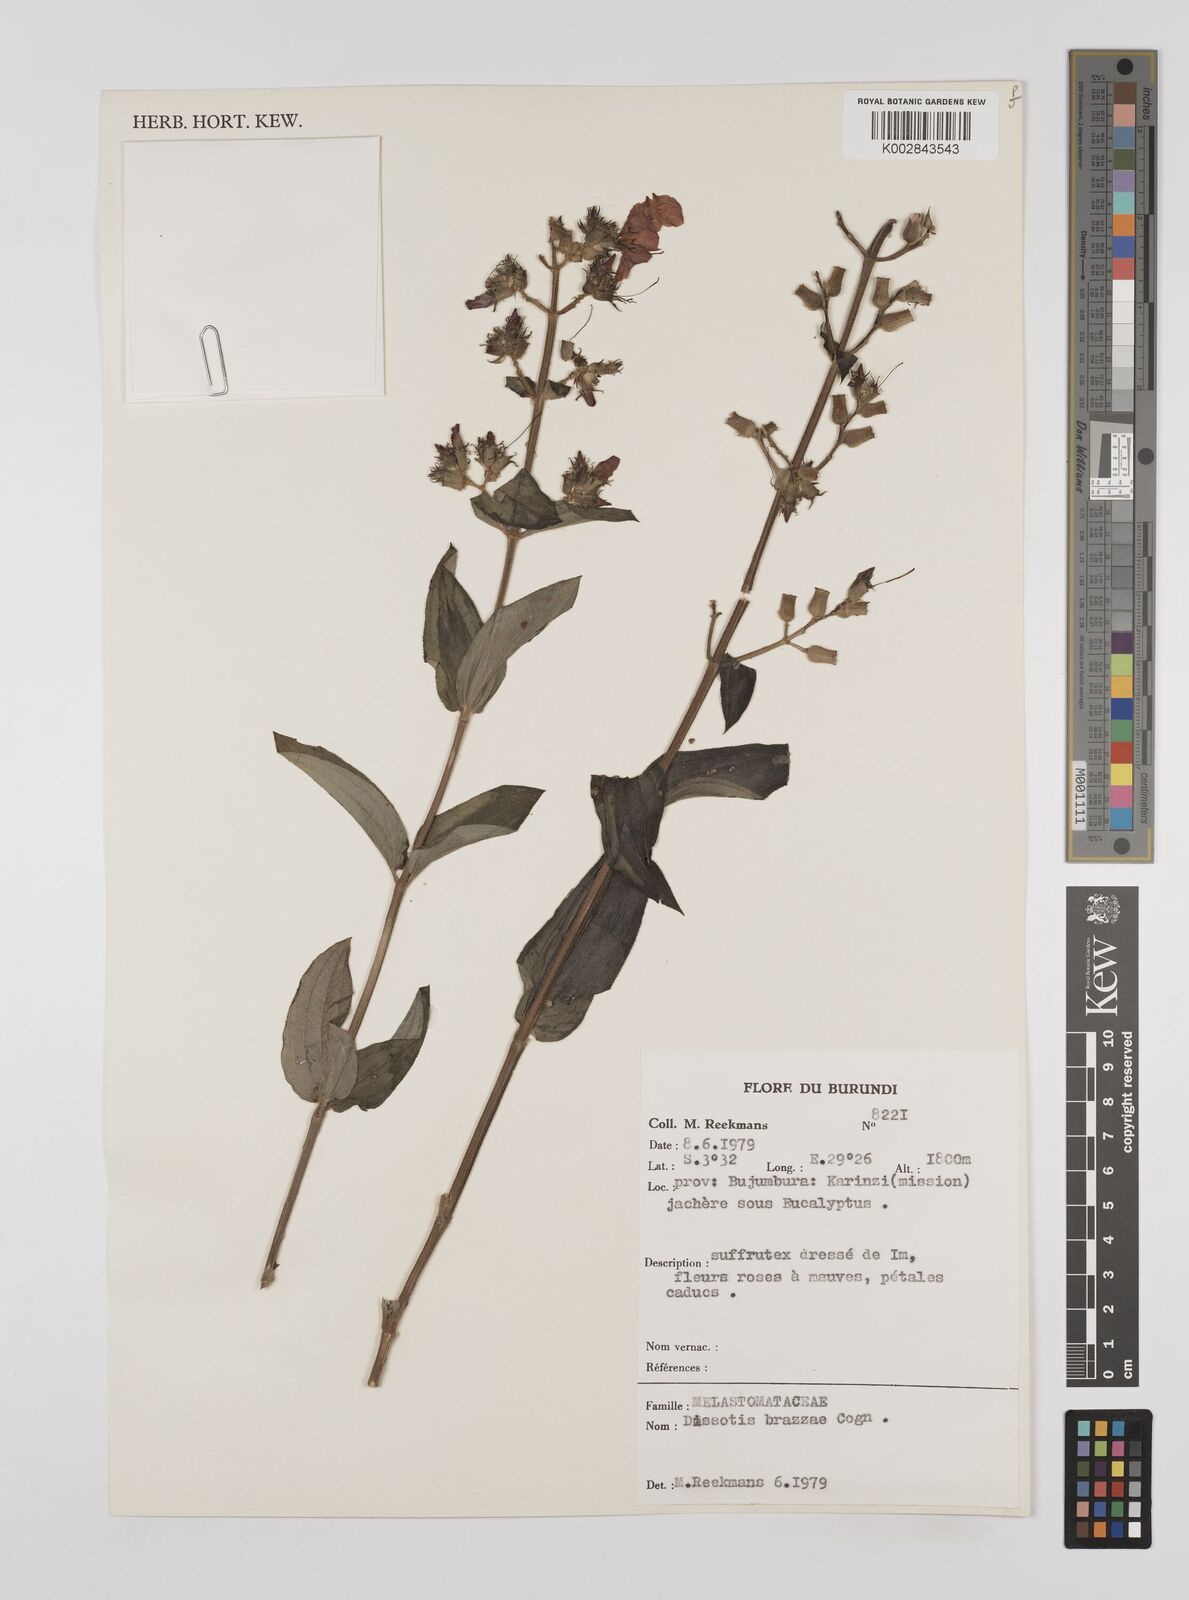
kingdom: Plantae
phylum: Tracheophyta
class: Magnoliopsida
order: Myrtales
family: Melastomataceae
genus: Dupineta
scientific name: Dupineta brazzae
